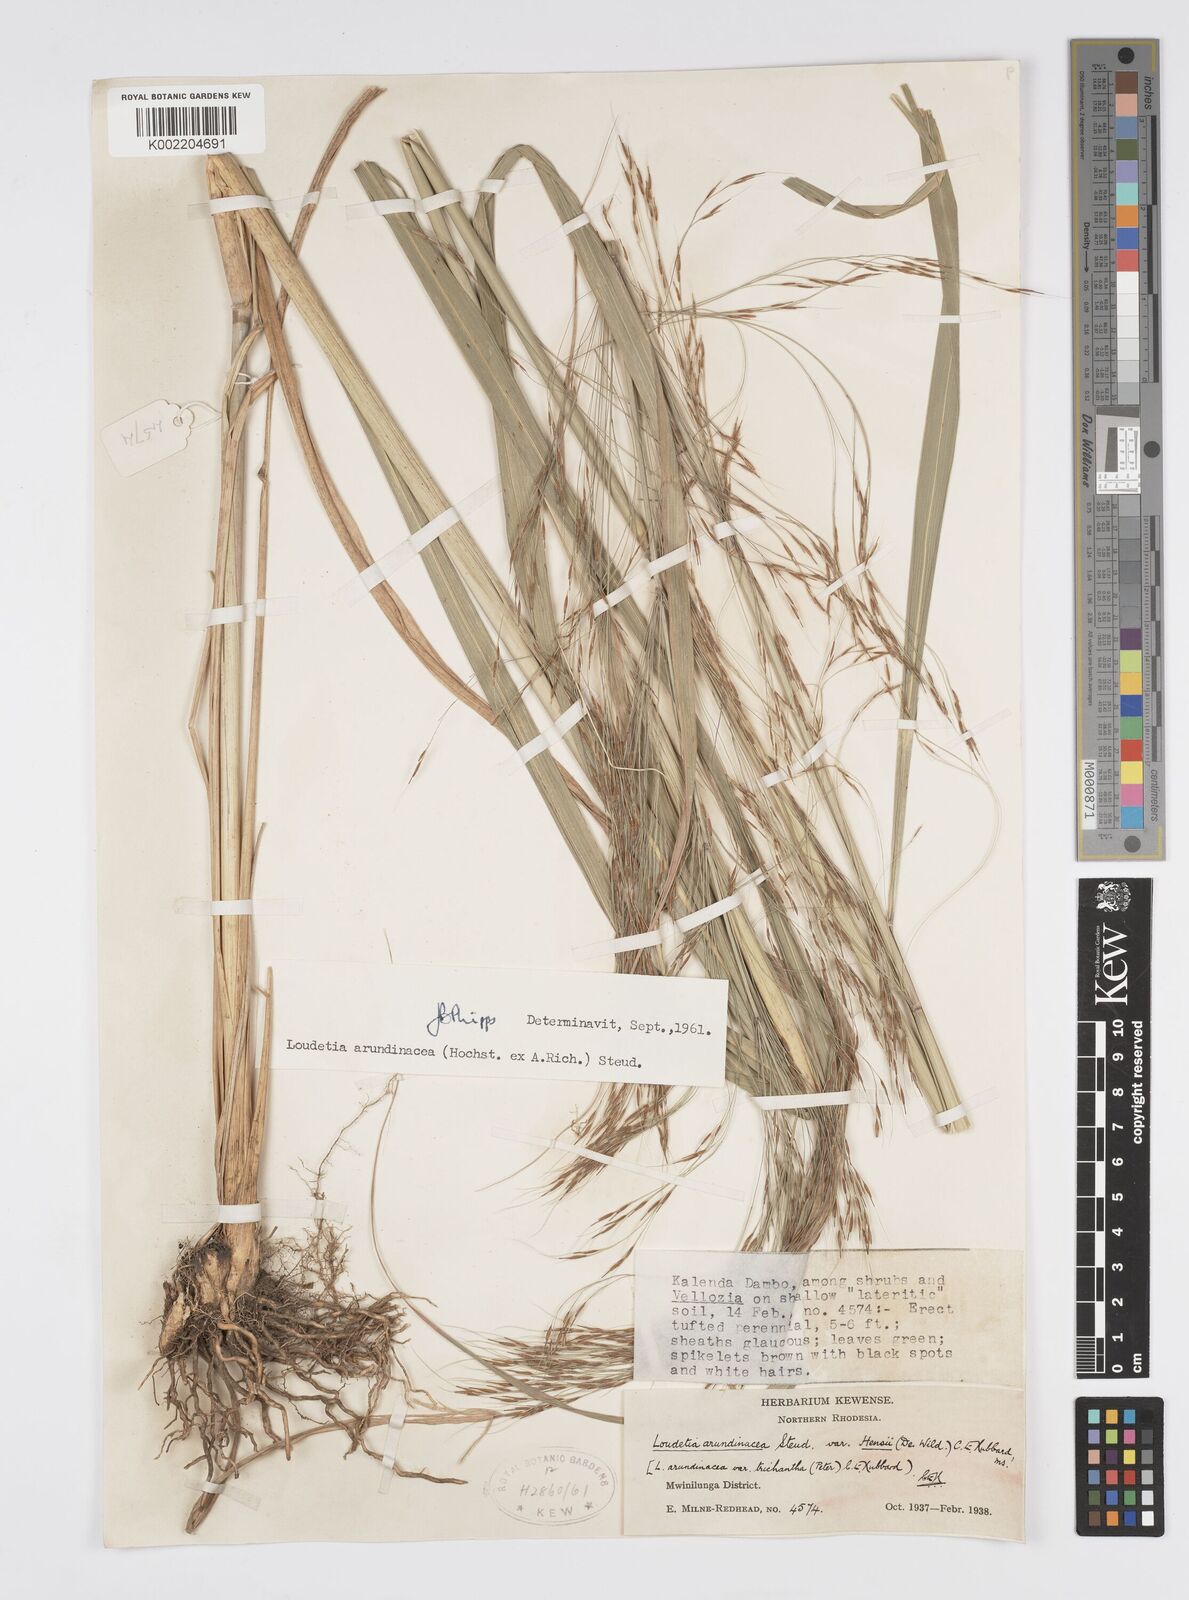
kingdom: Plantae
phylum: Tracheophyta
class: Liliopsida
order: Poales
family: Poaceae
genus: Loudetia
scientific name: Loudetia arundinacea
